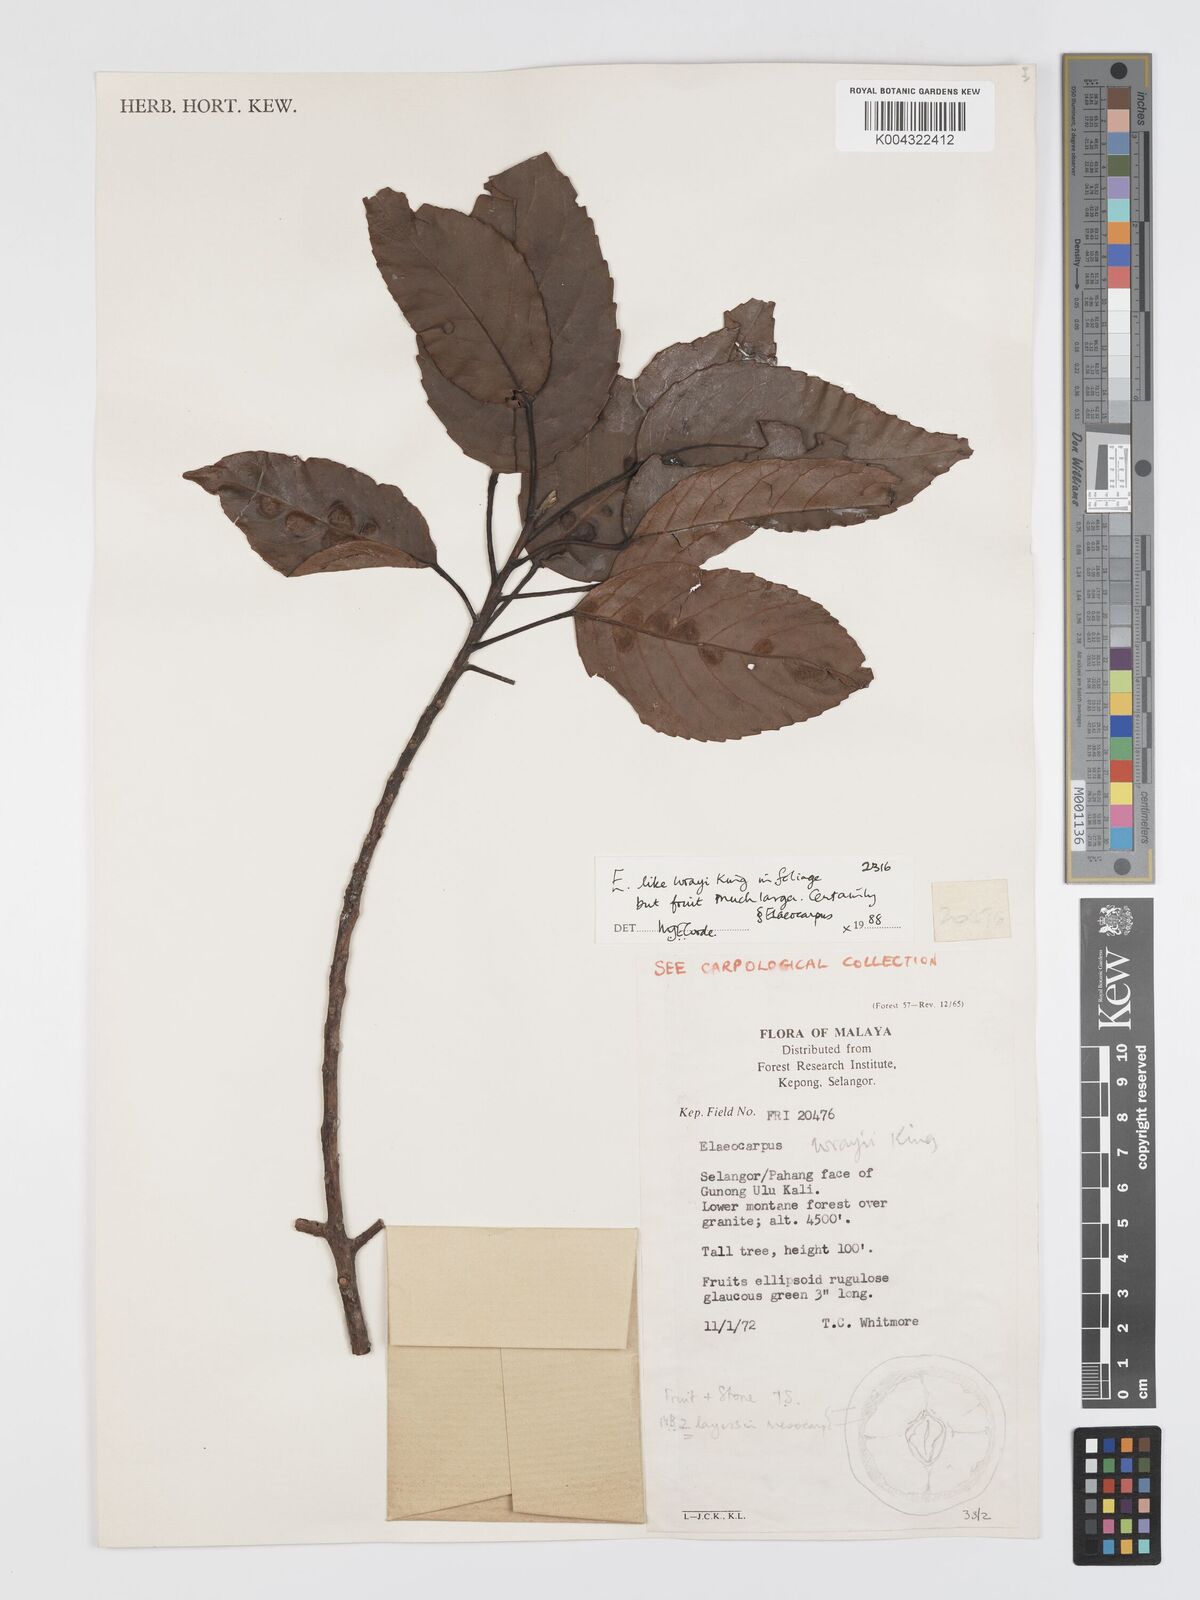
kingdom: Plantae
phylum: Tracheophyta
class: Magnoliopsida
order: Oxalidales
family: Elaeocarpaceae
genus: Elaeocarpus
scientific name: Elaeocarpus nitidus
